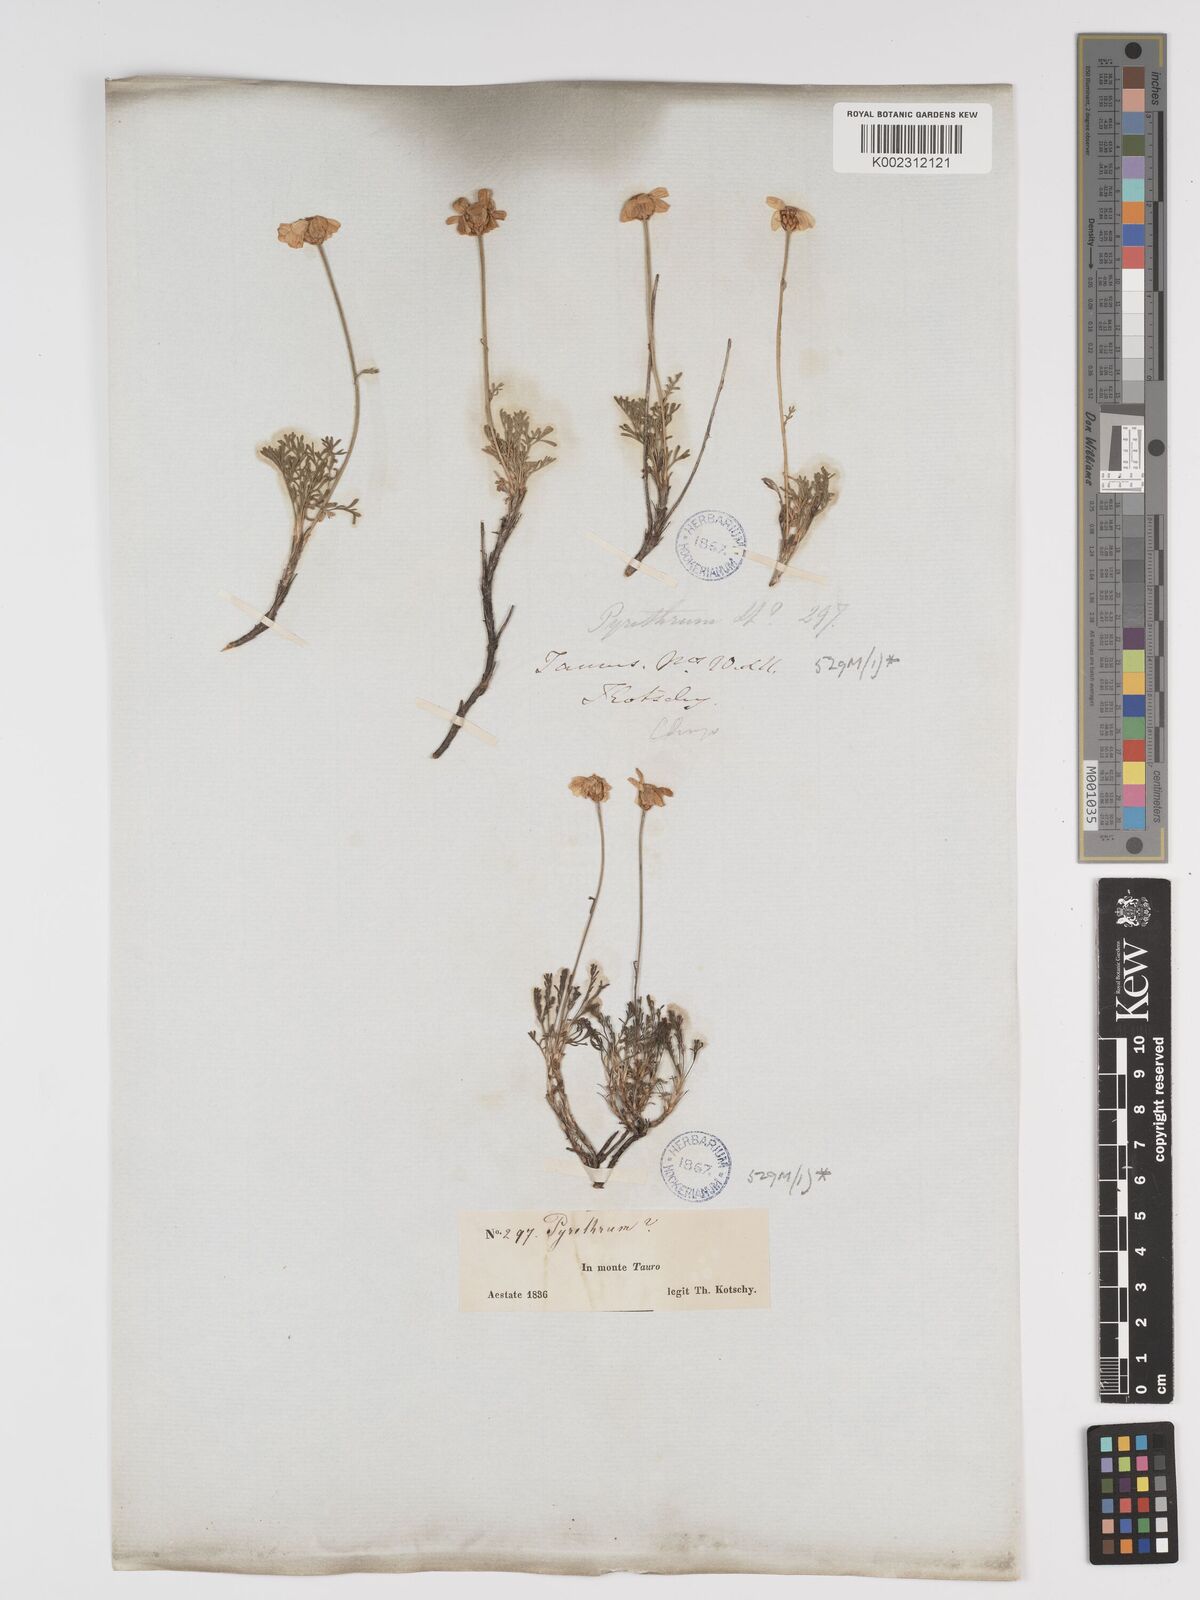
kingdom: Plantae
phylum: Tracheophyta
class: Magnoliopsida
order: Asterales
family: Asteraceae
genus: Ajania
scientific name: Ajania fruticulosa
